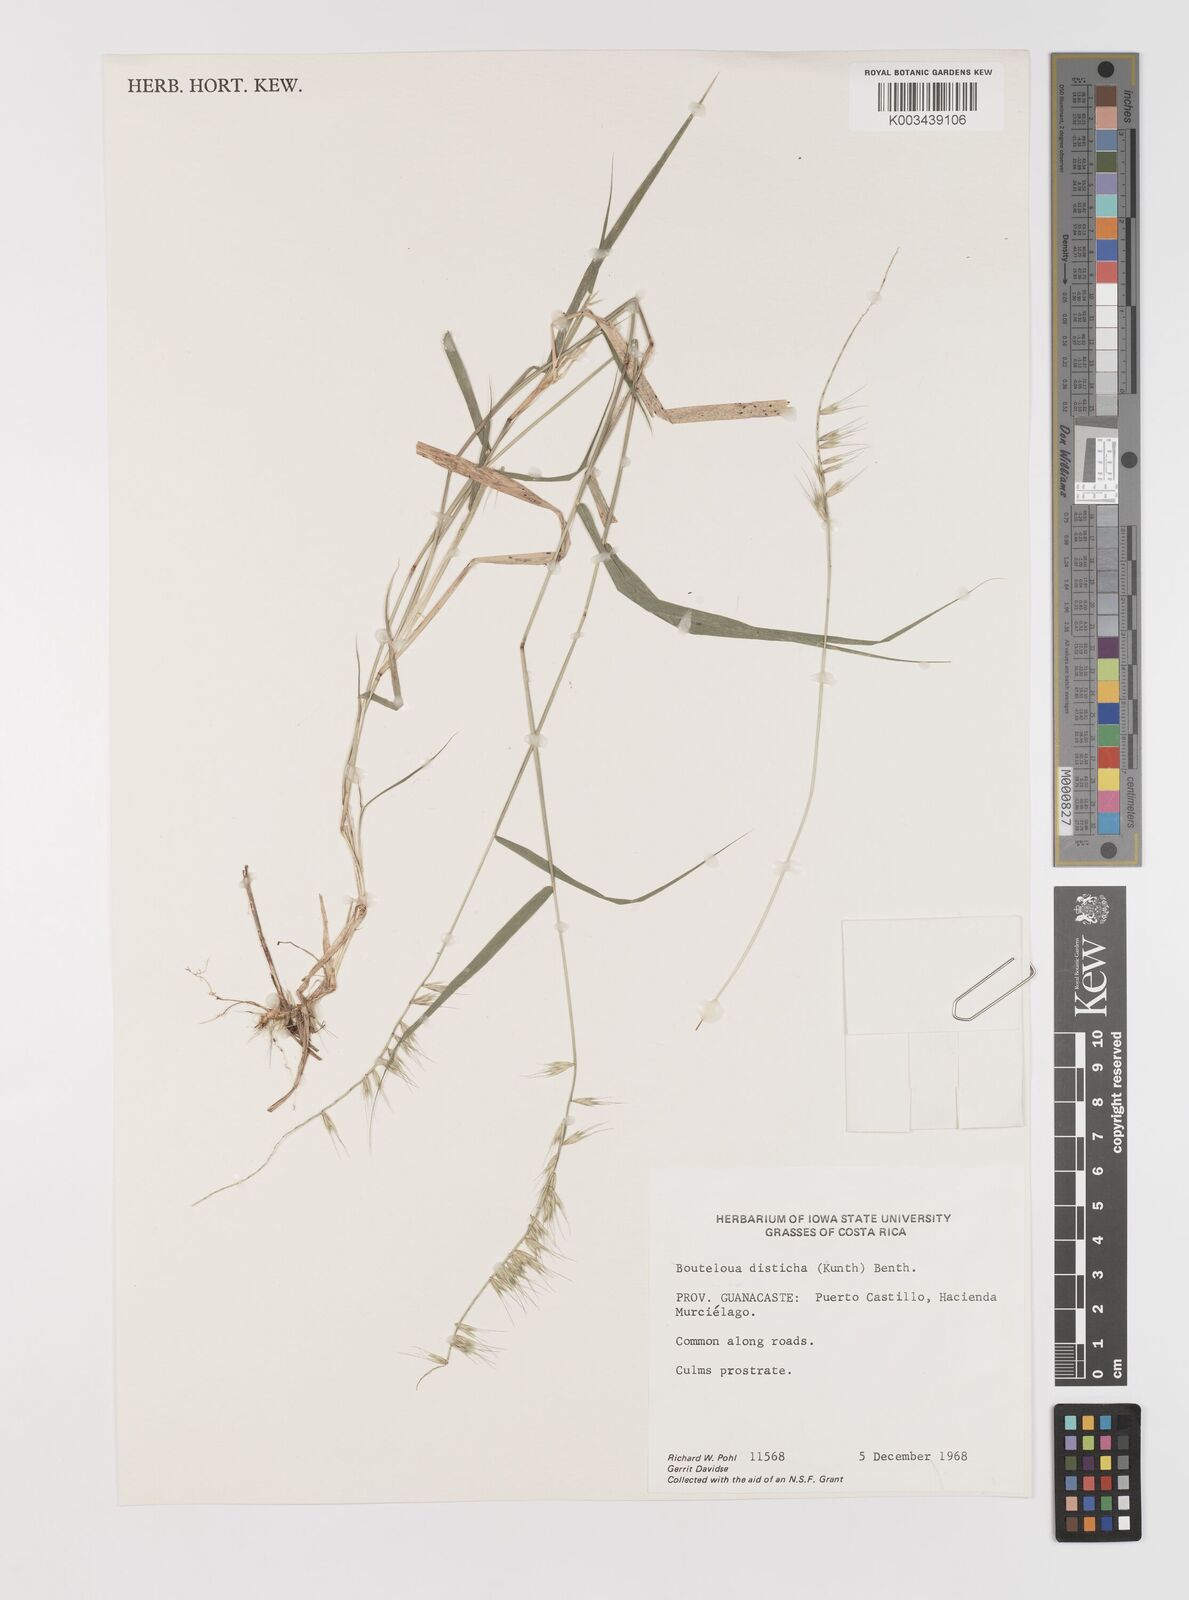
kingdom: Plantae
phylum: Tracheophyta
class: Liliopsida
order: Poales
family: Poaceae
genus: Bouteloua
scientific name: Bouteloua disticha
